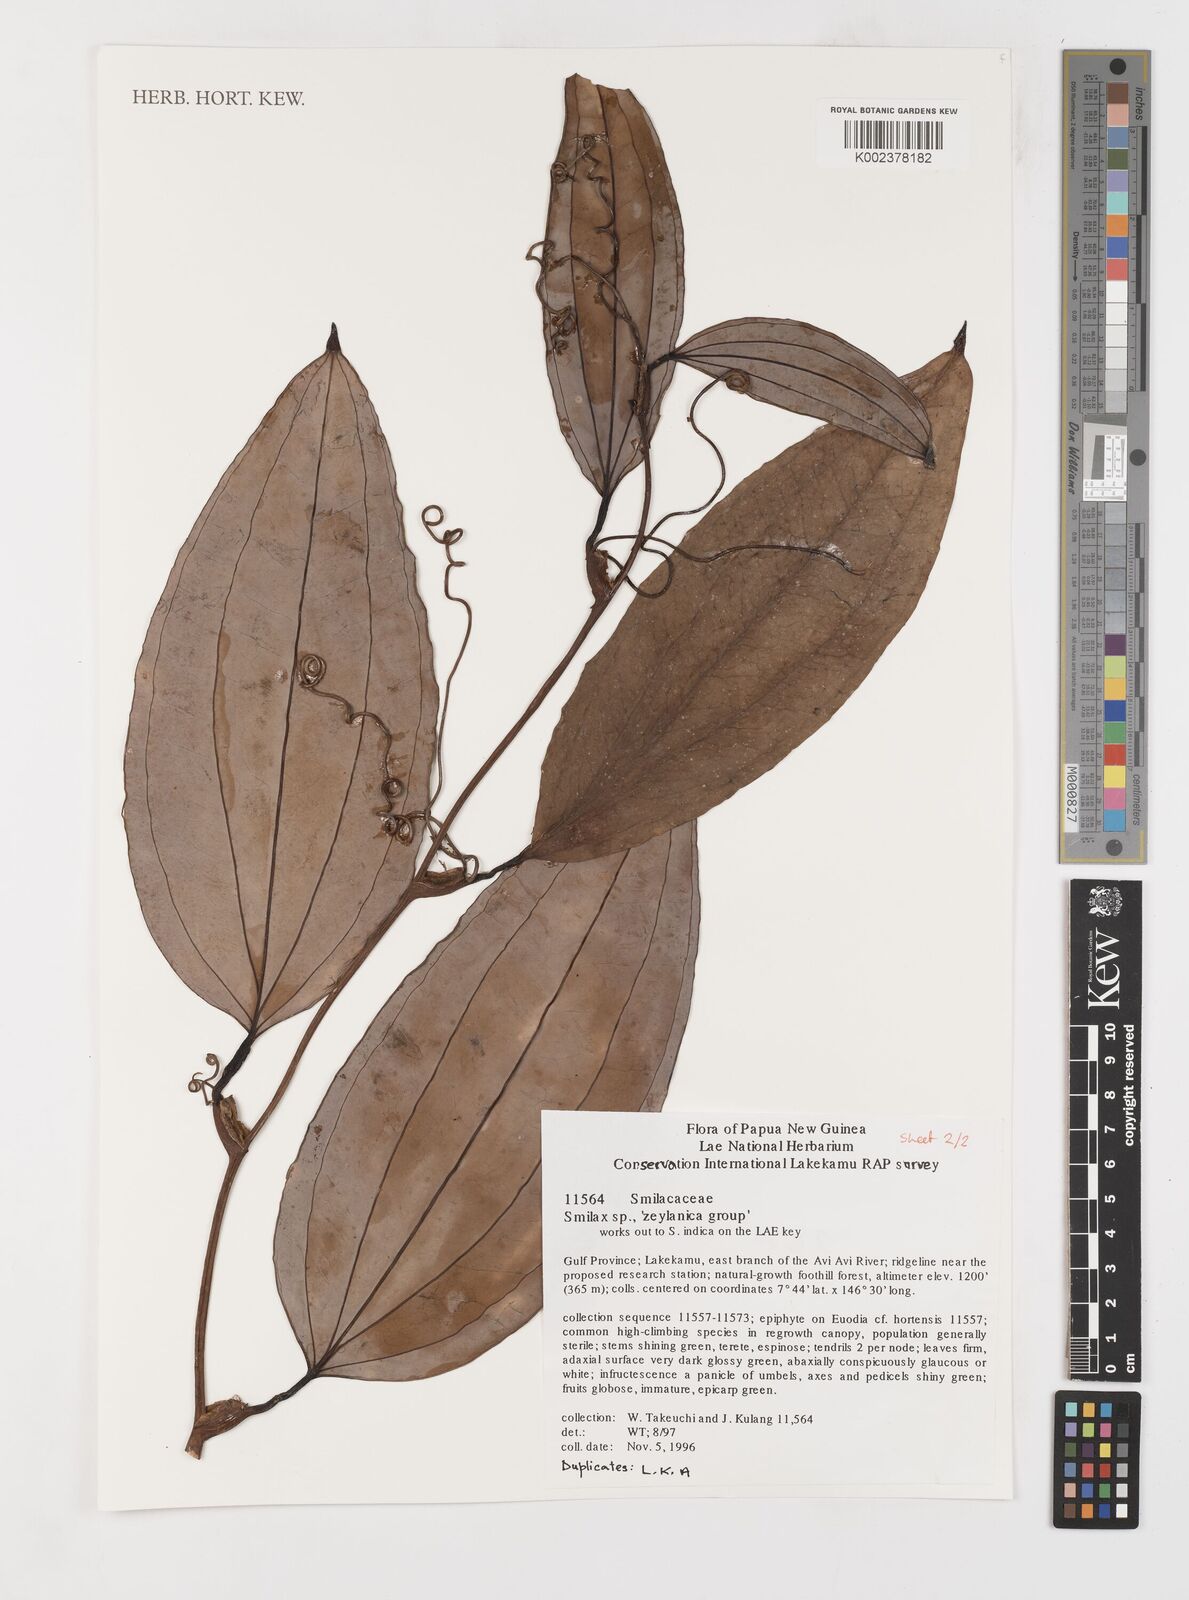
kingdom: Plantae
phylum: Tracheophyta
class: Liliopsida
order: Liliales
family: Smilacaceae
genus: Smilax
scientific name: Smilax zeylanica
